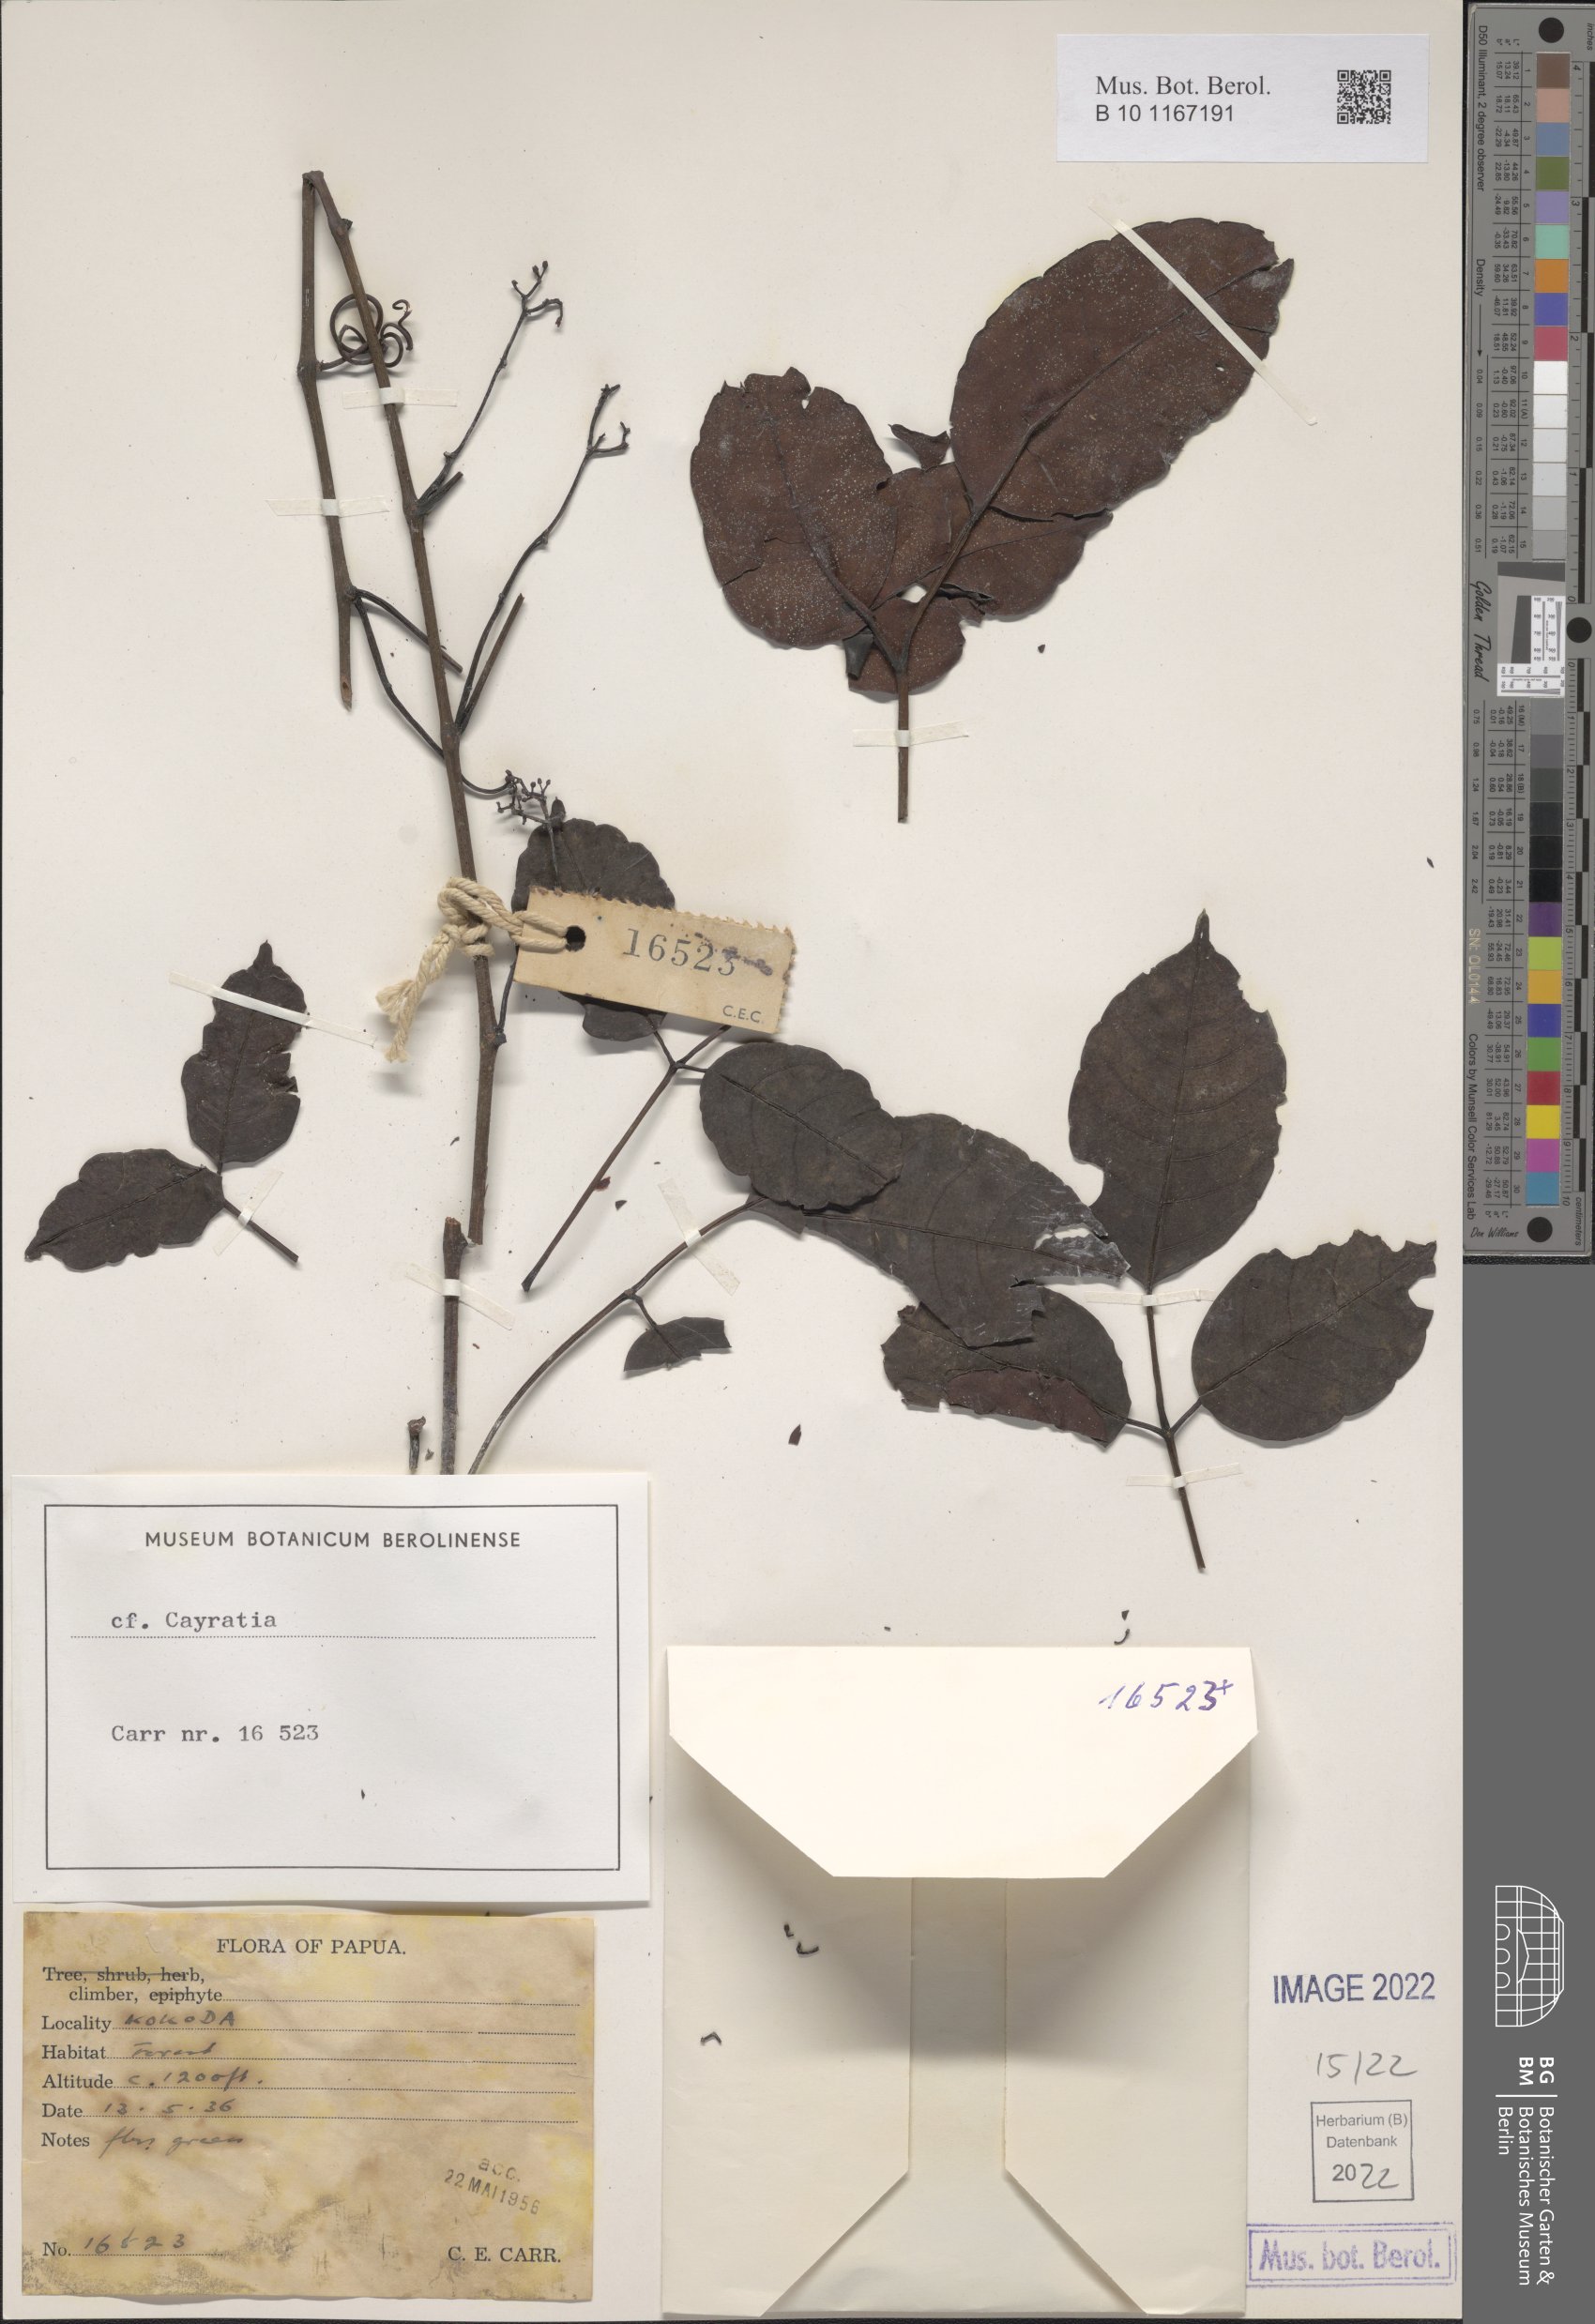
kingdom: Plantae
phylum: Tracheophyta
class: Magnoliopsida
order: Vitales
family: Vitaceae
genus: Cayratia
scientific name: Cayratia
